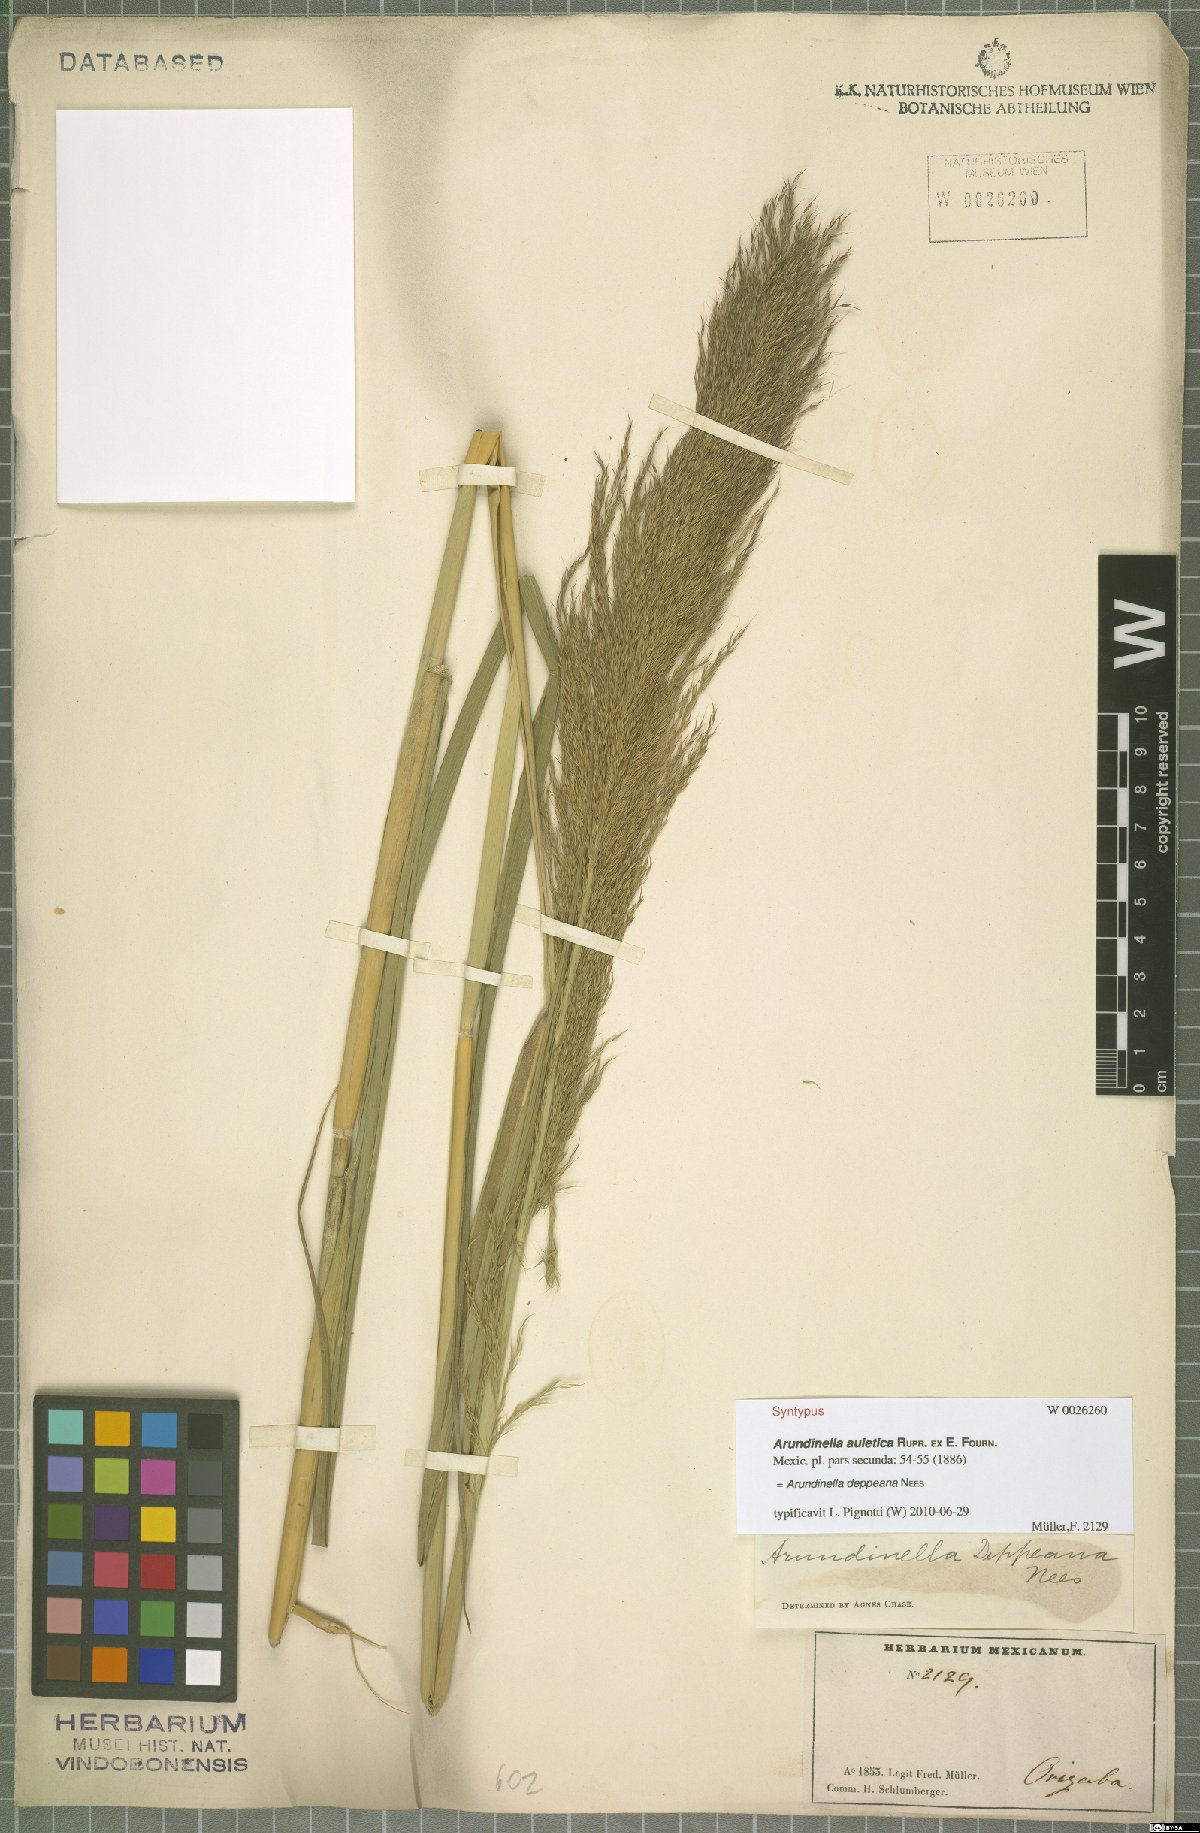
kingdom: Plantae
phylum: Tracheophyta
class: Liliopsida
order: Poales
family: Poaceae
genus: Arundinella
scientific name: Arundinella deppeana
